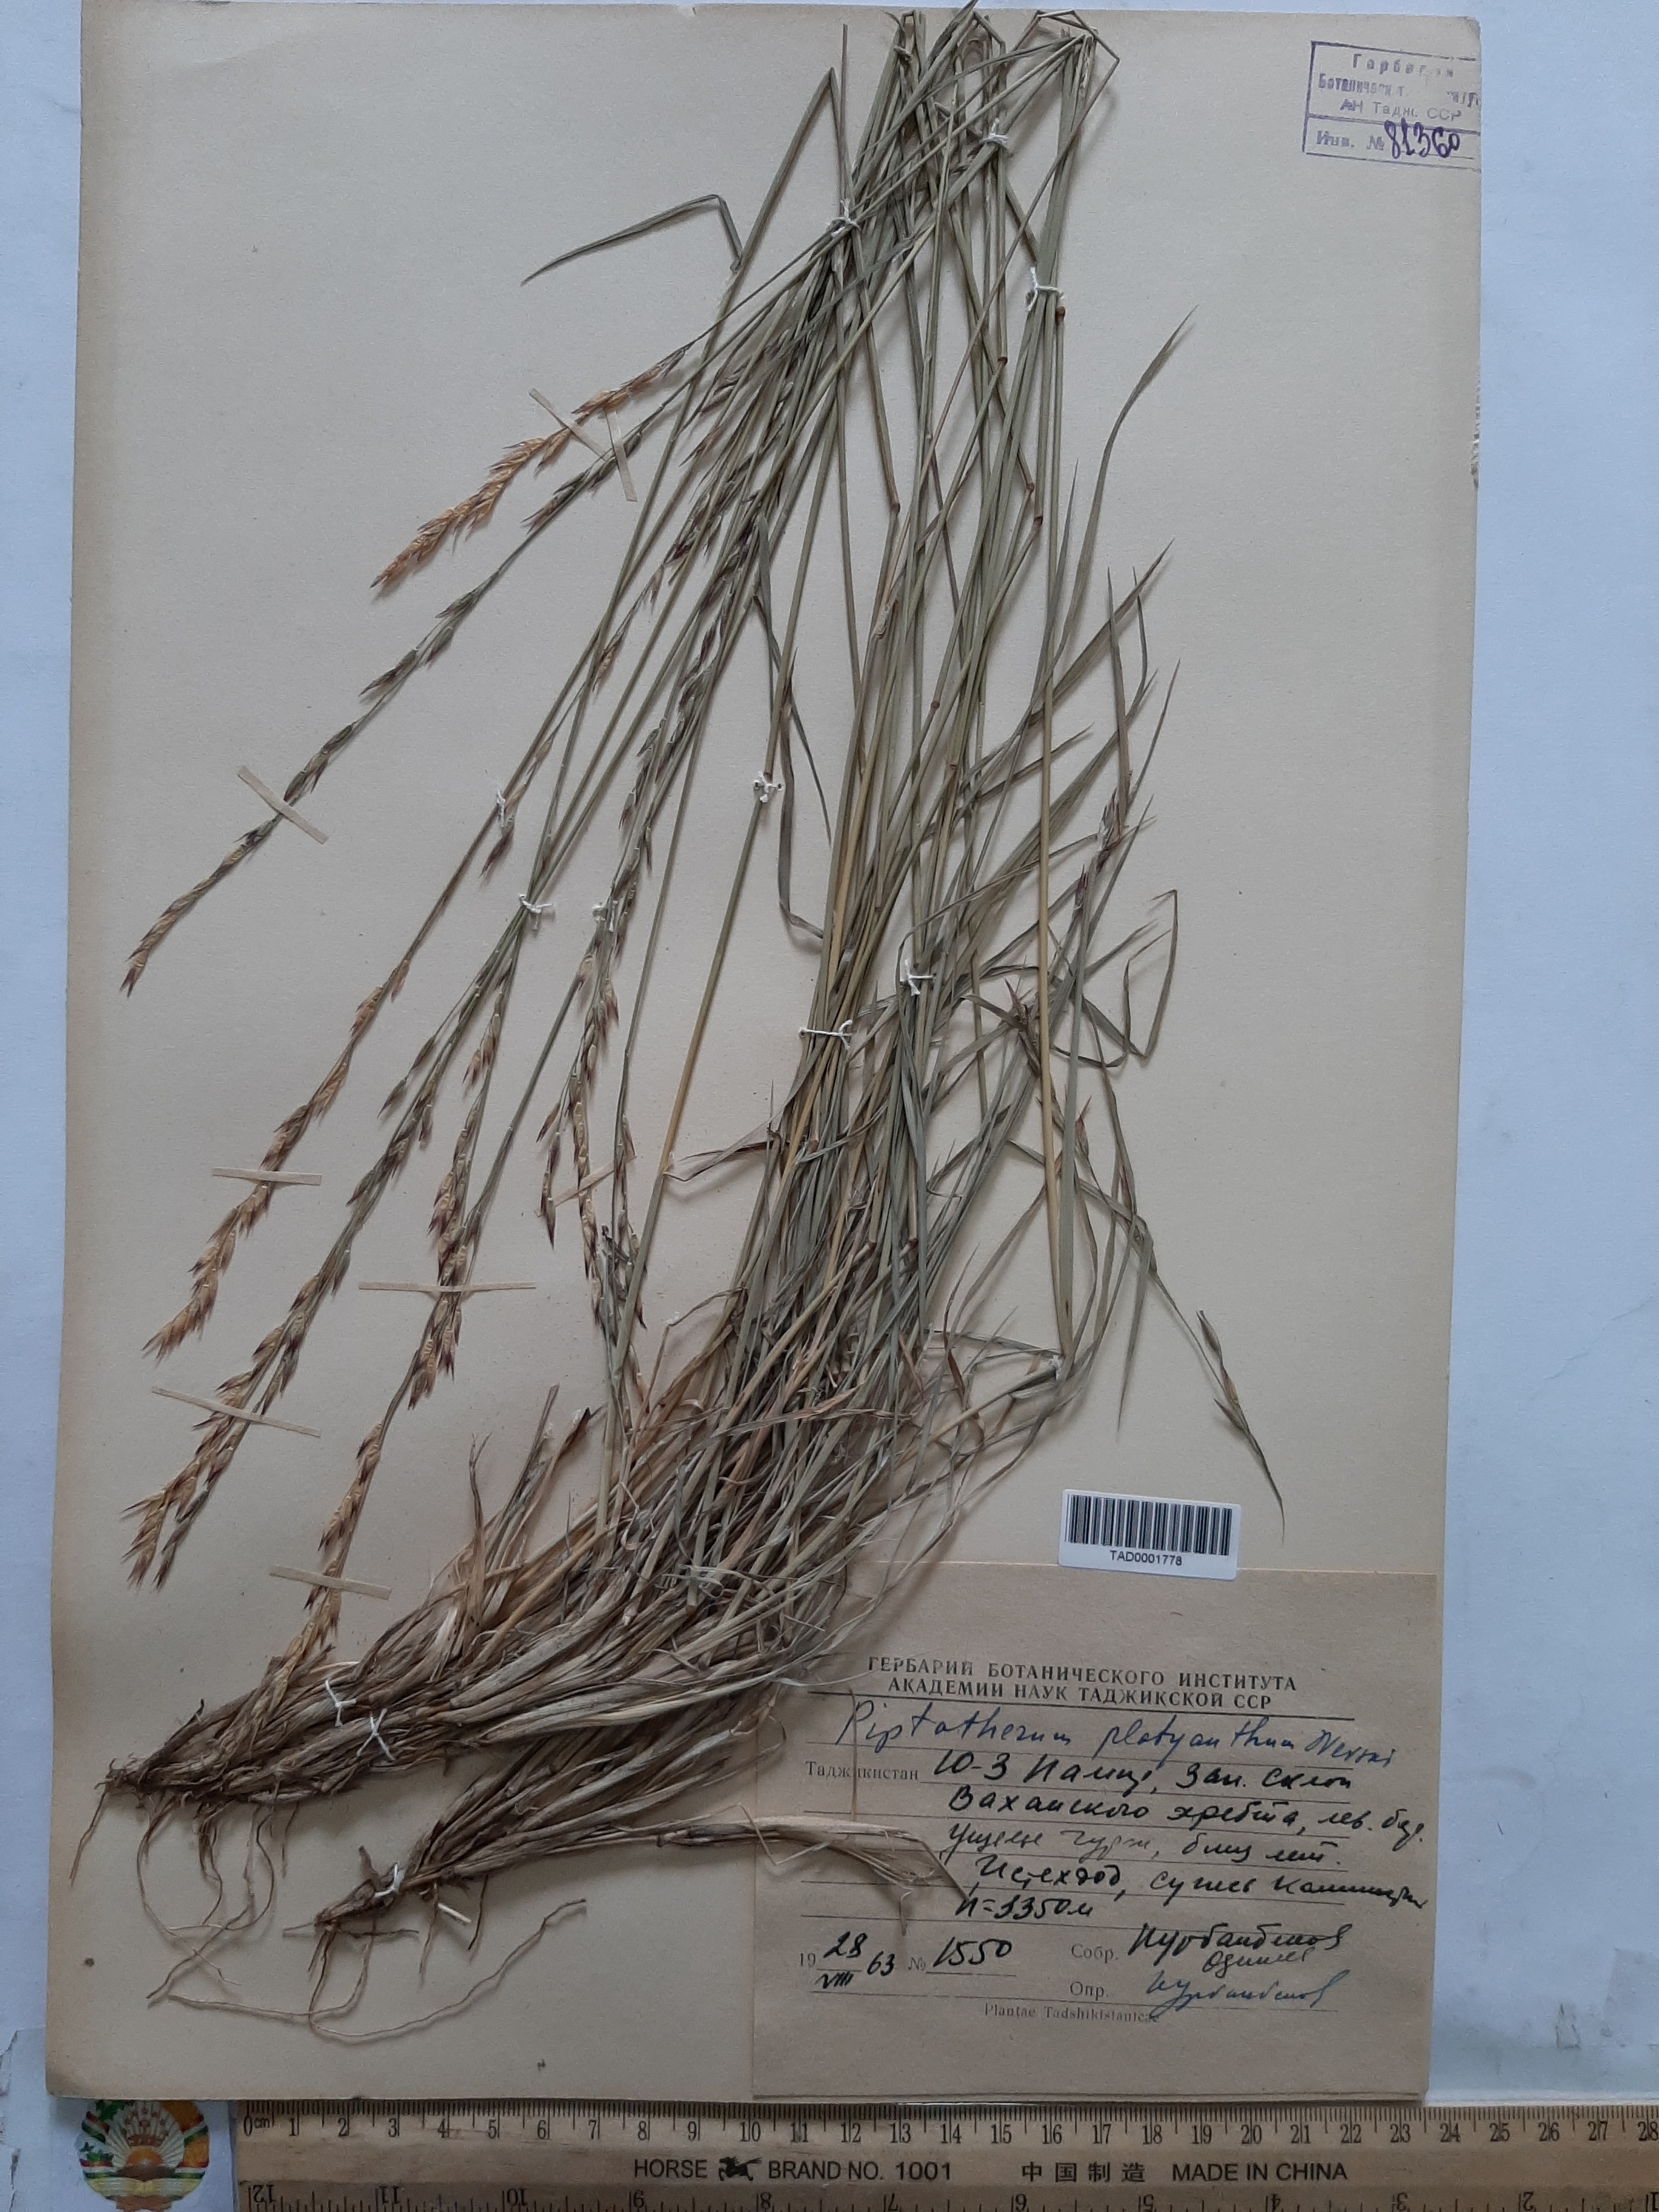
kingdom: Plantae
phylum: Tracheophyta
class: Liliopsida
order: Poales
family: Poaceae
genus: Piptatherum
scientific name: Piptatherum platyanthum
